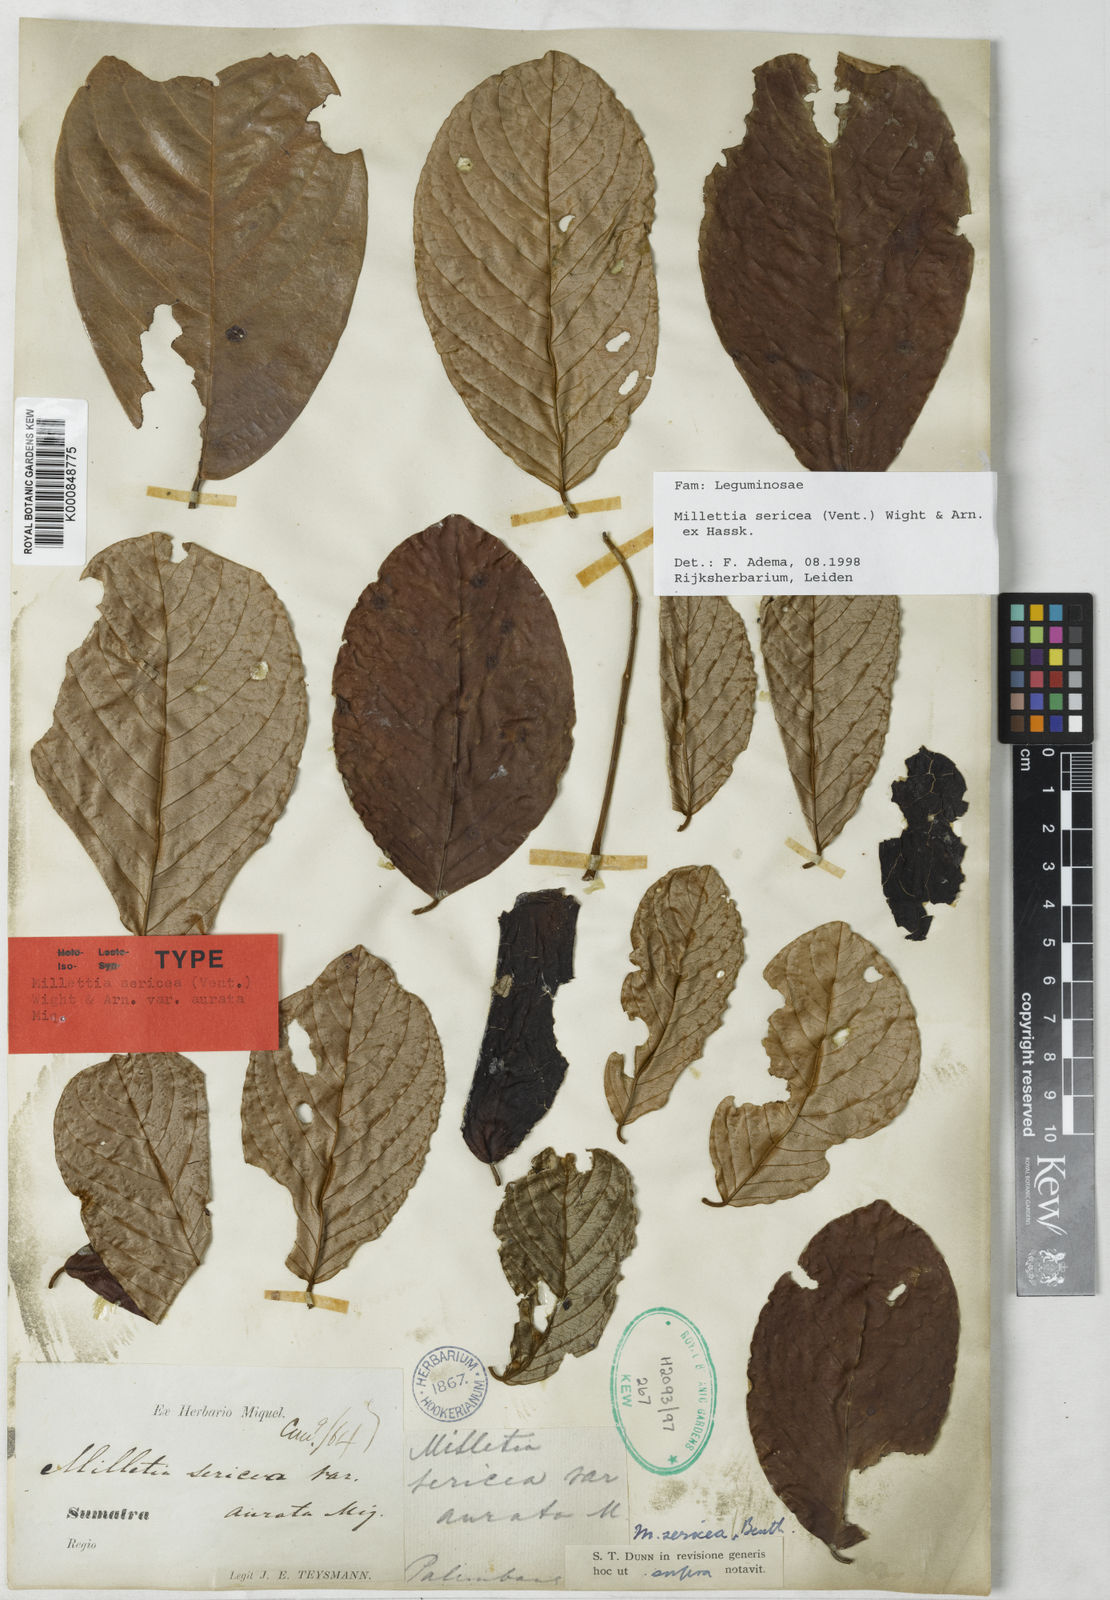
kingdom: Plantae
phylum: Tracheophyta
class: Magnoliopsida
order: Fabales
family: Fabaceae
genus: Millettia
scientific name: Millettia
